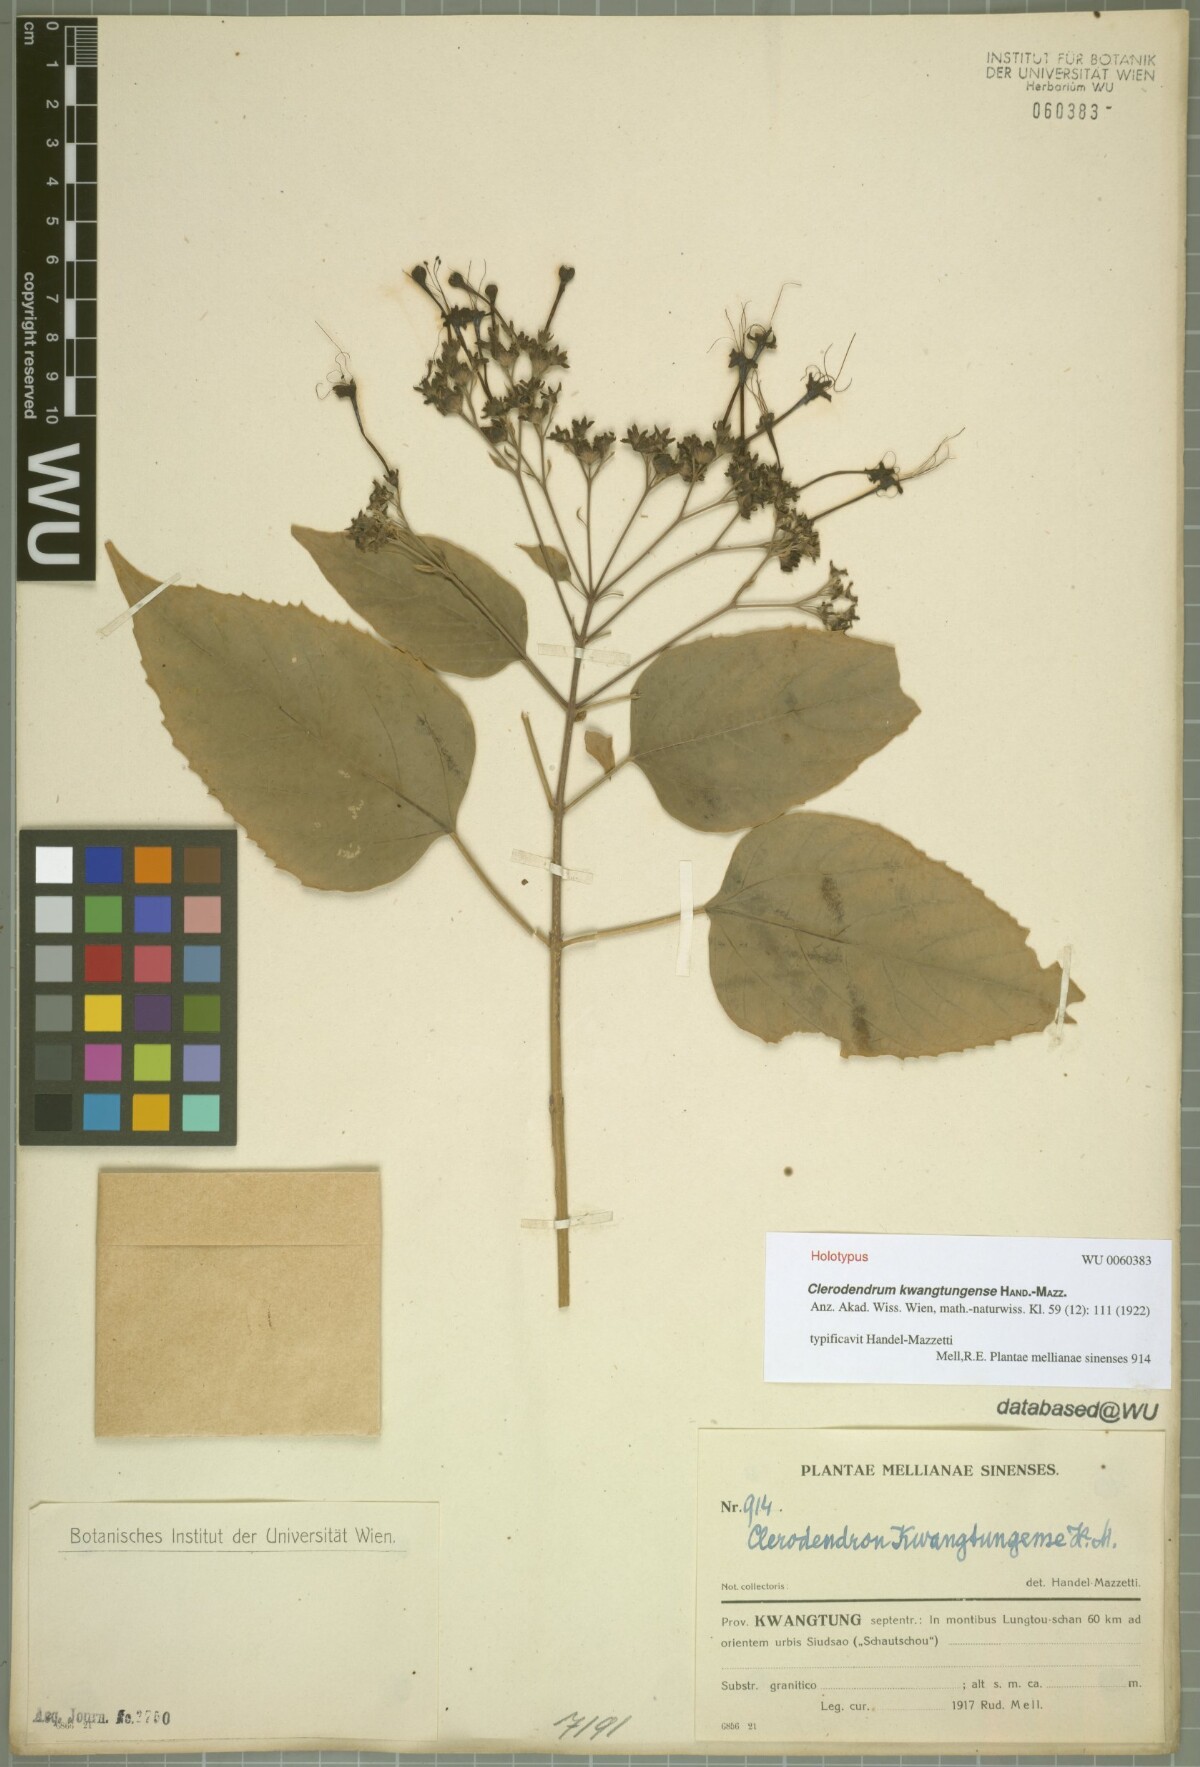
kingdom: Plantae
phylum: Tracheophyta
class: Magnoliopsida
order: Lamiales
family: Lamiaceae
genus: Clerodendrum
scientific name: Clerodendrum kwangtungense
